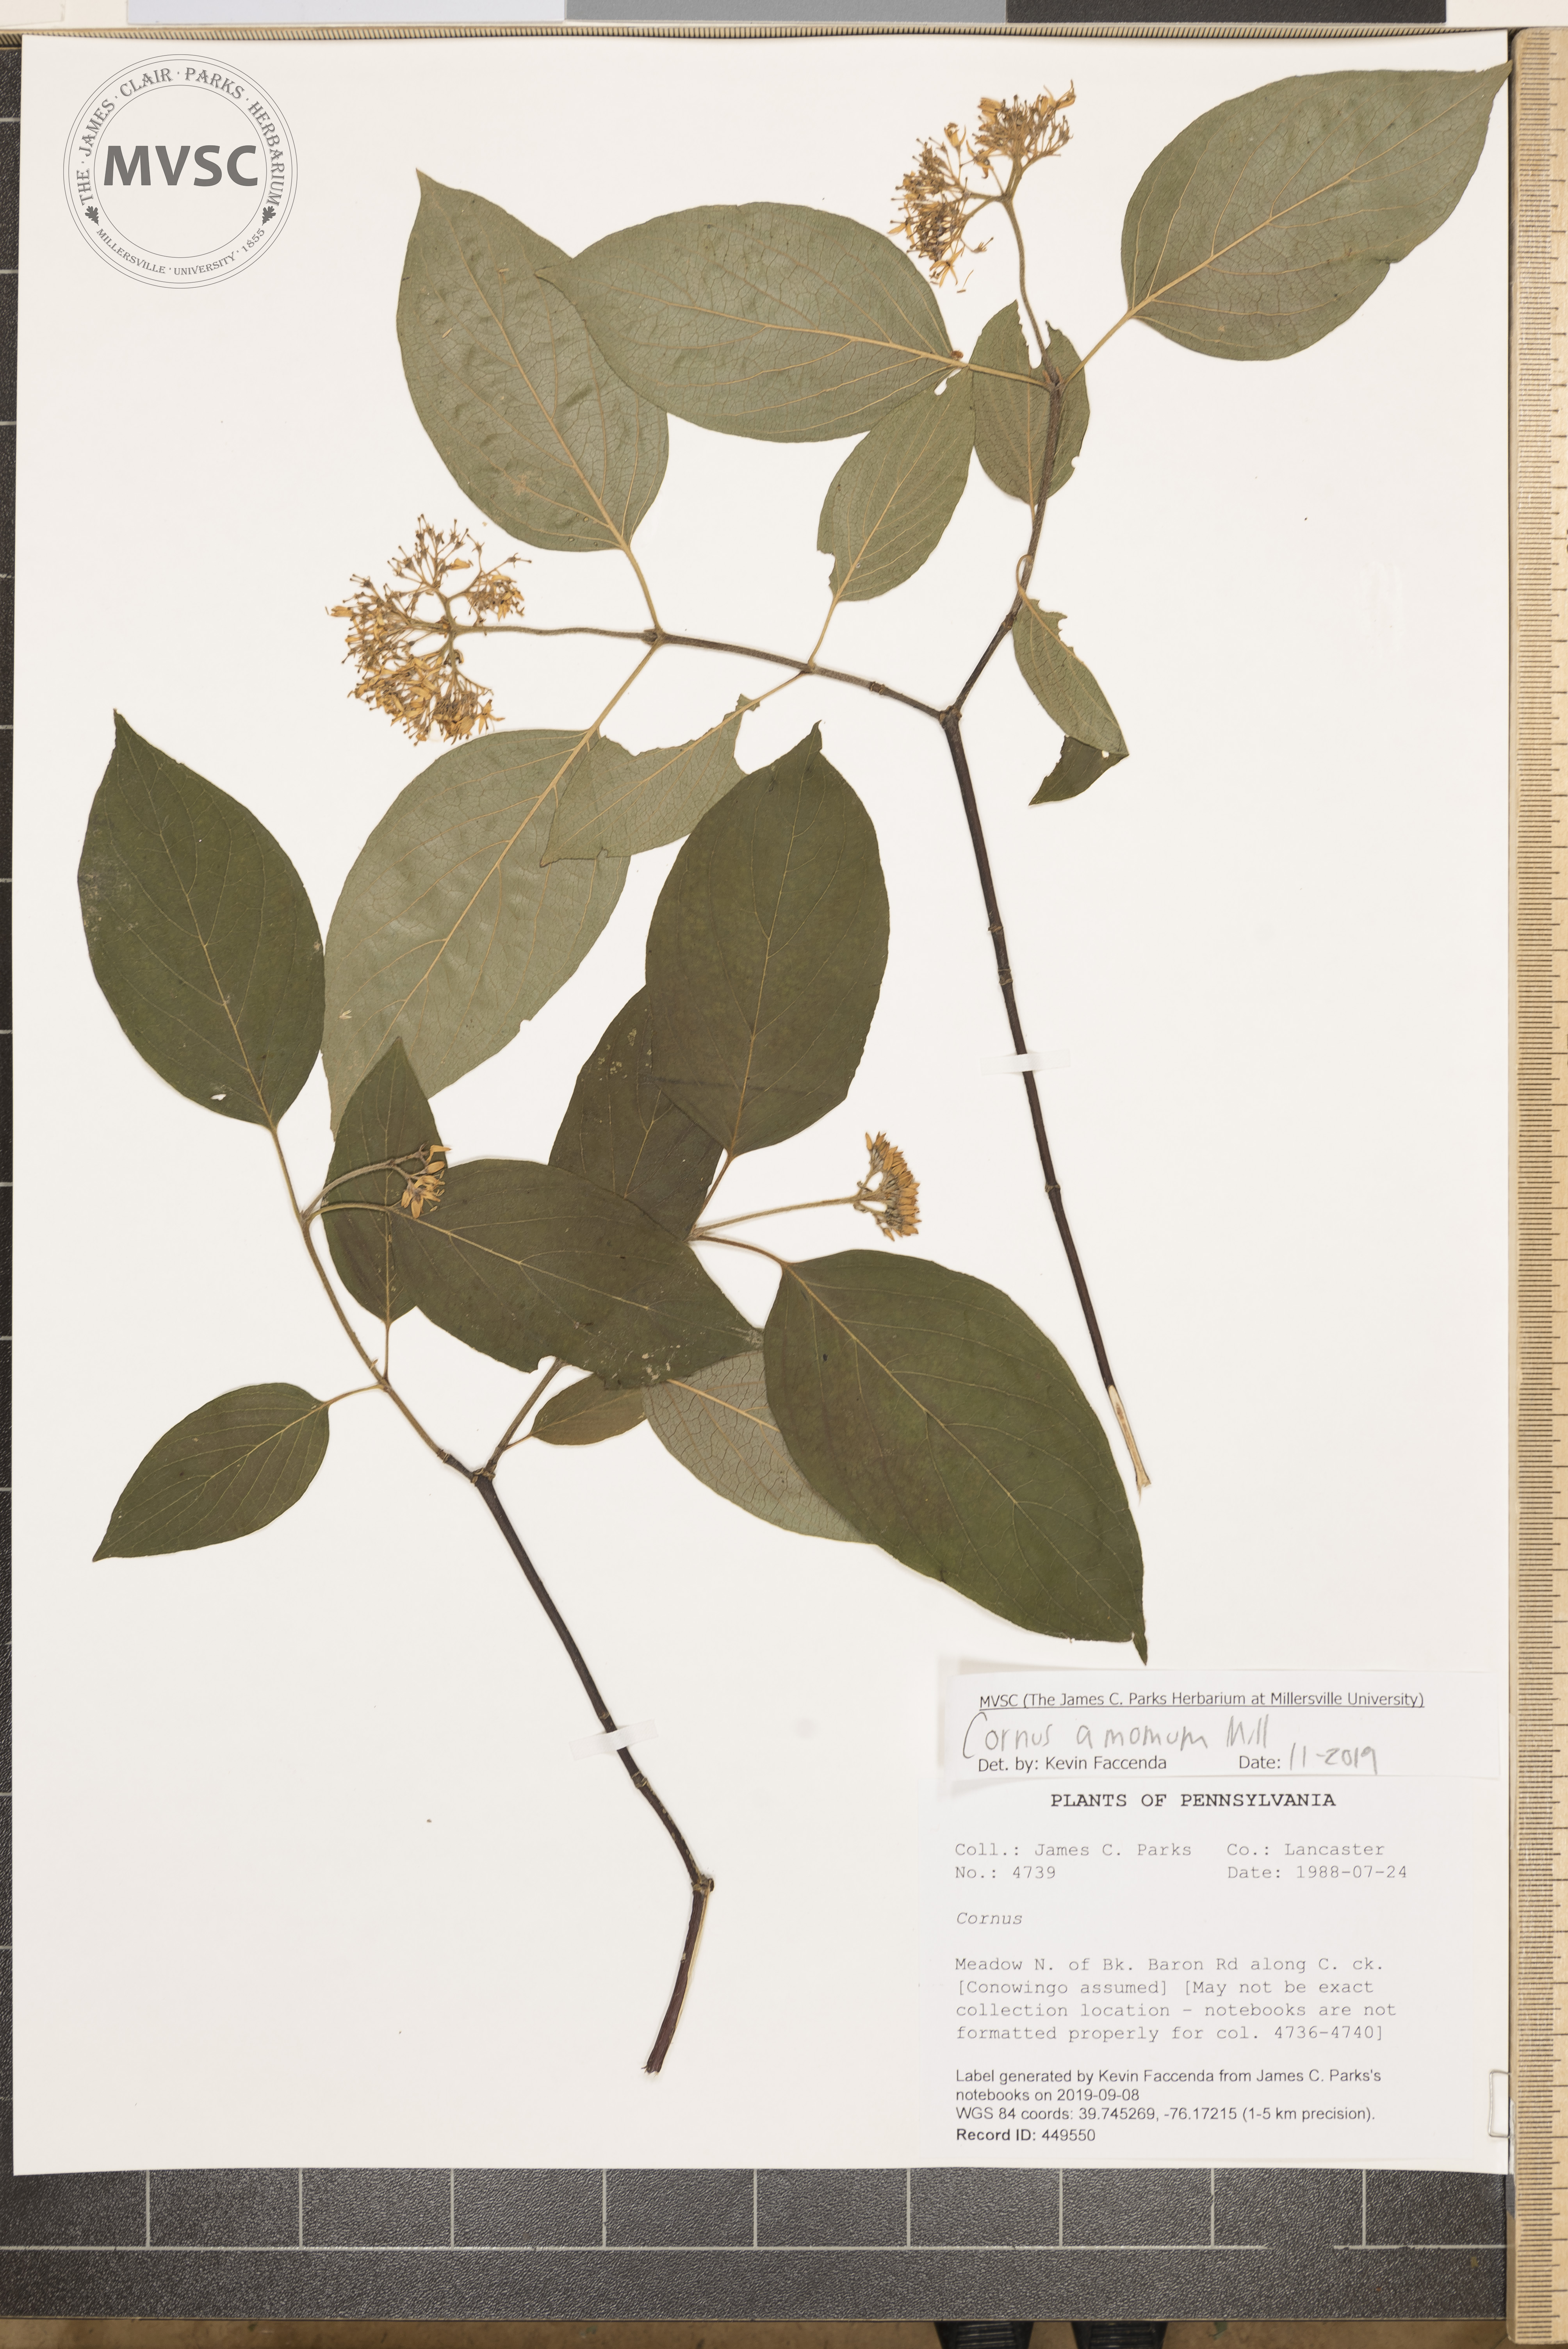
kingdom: Plantae
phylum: Tracheophyta
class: Magnoliopsida
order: Cornales
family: Cornaceae
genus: Cornus
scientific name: Cornus amomum
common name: Silky dogwood
